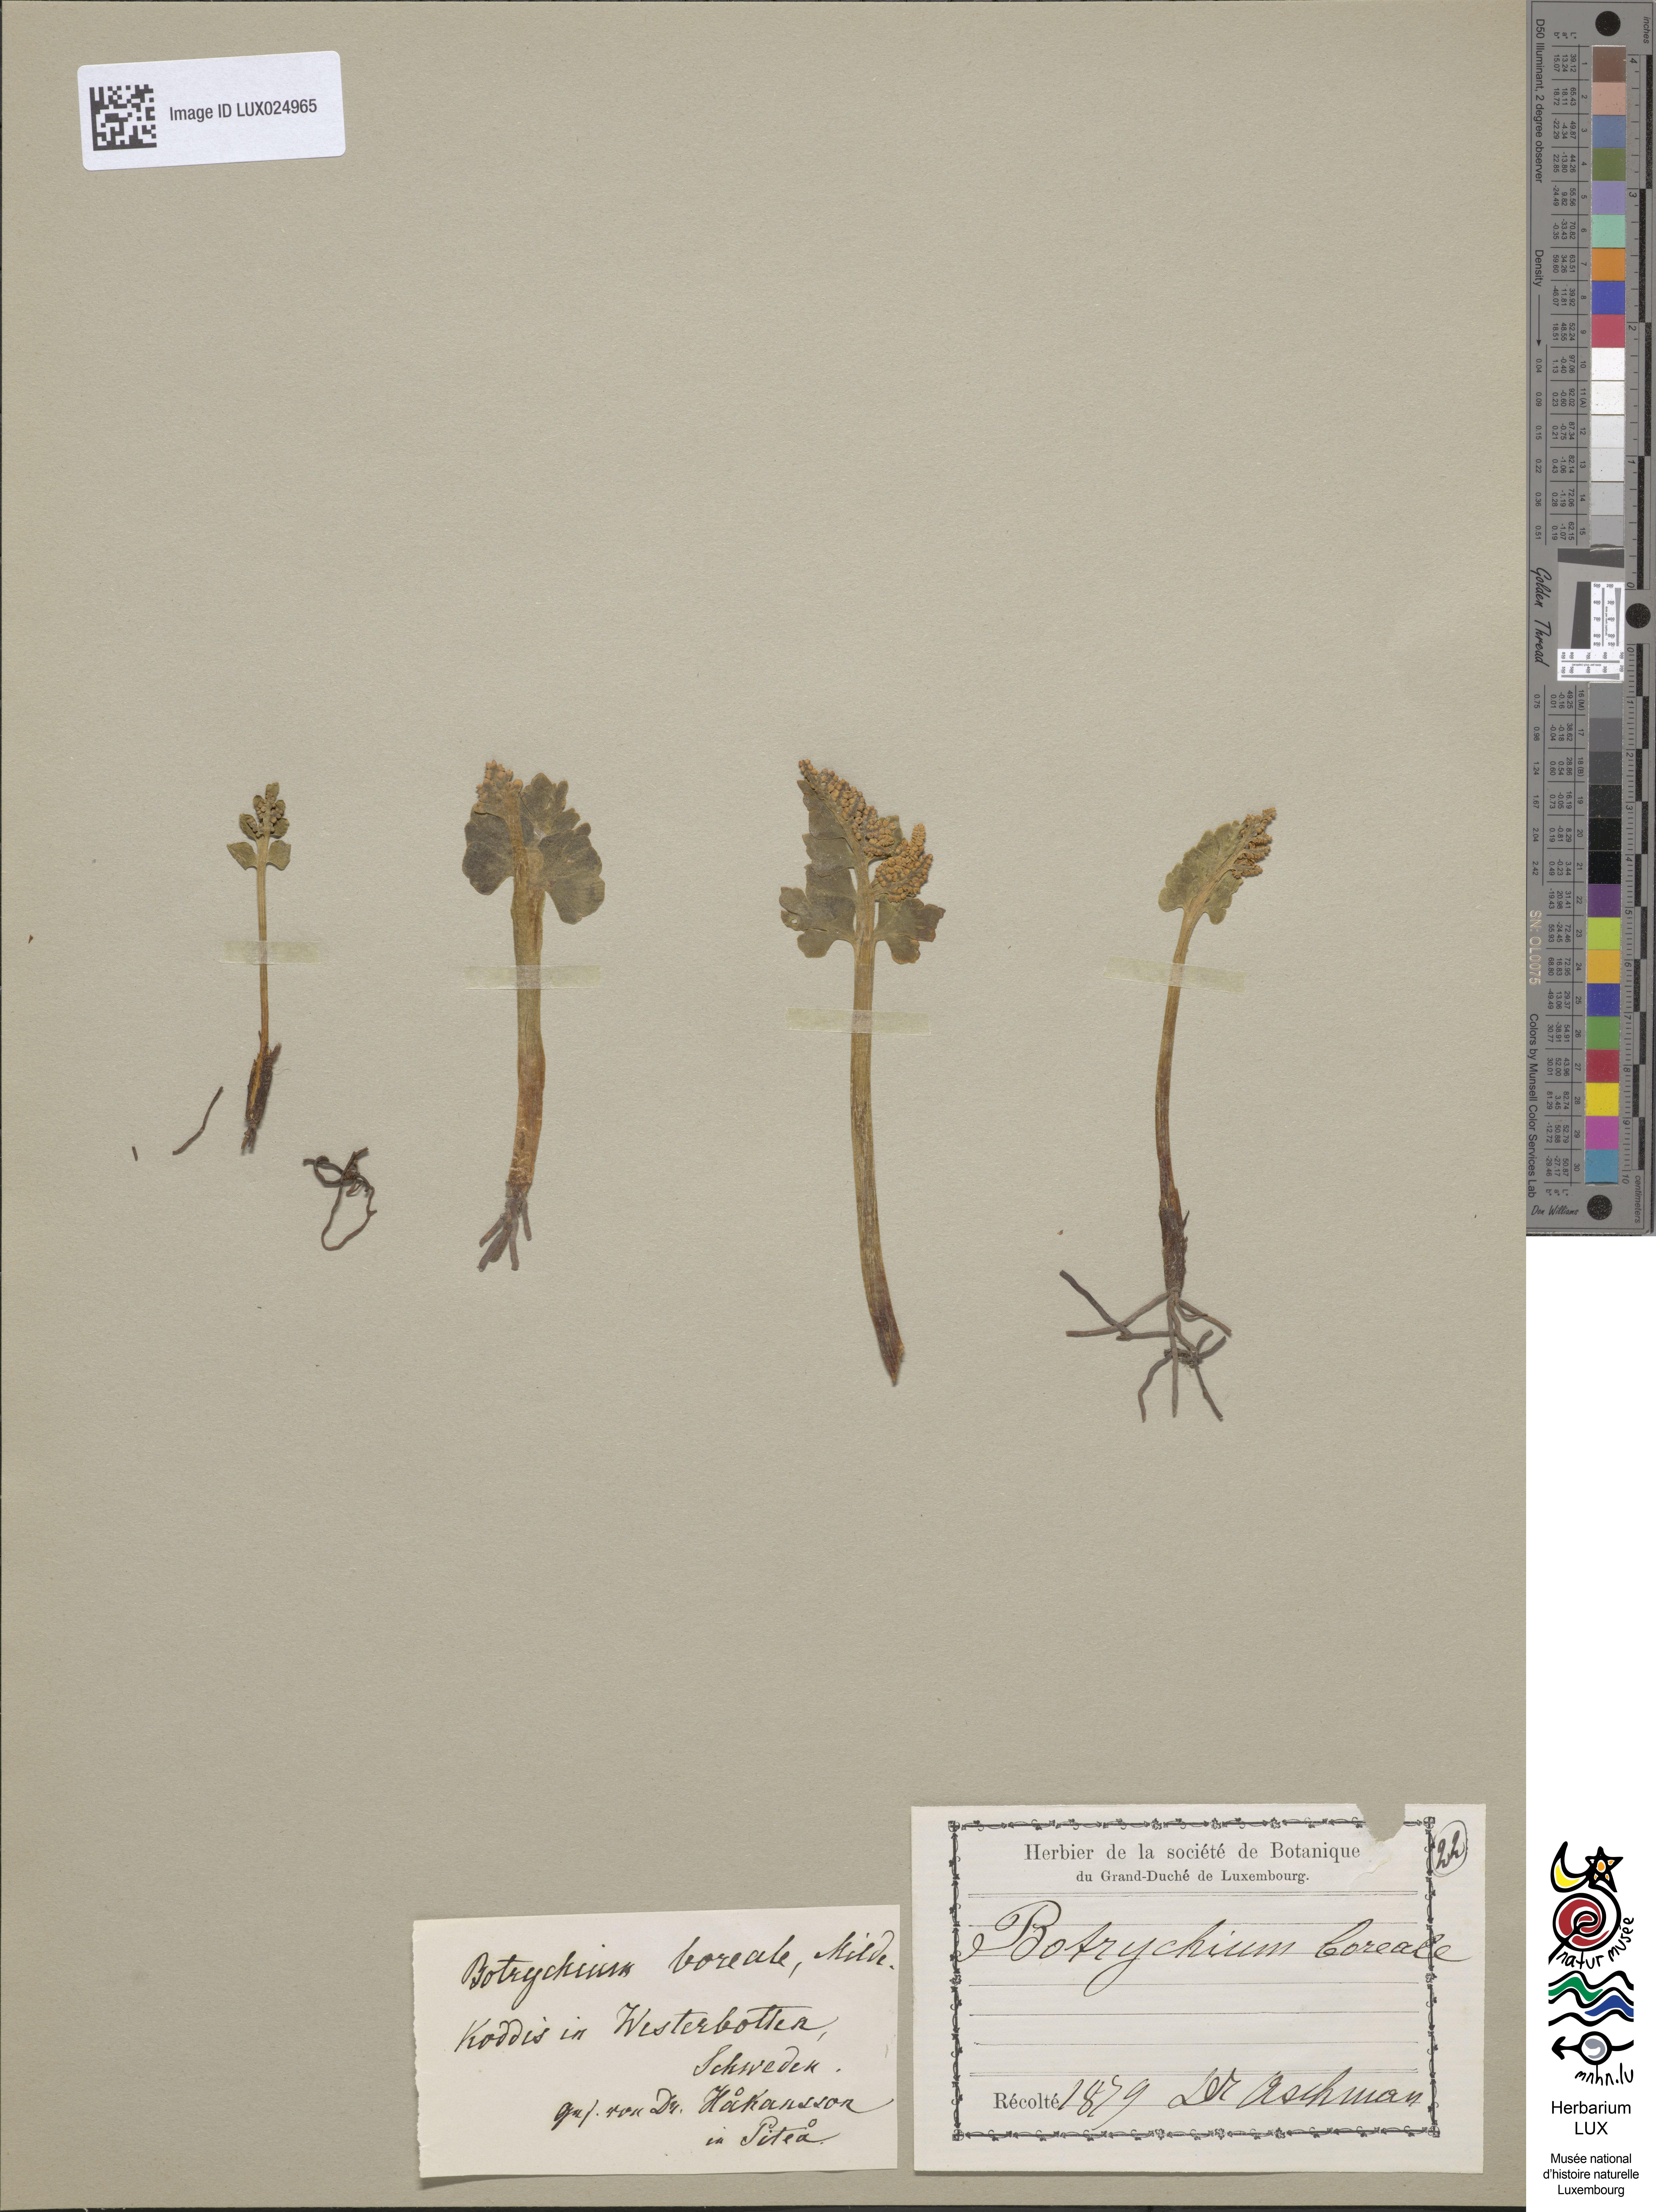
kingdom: Plantae
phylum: Tracheophyta
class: Polypodiopsida
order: Ophioglossales
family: Ophioglossaceae
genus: Botrychium
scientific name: Botrychium boreale
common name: Boreal moonwort
